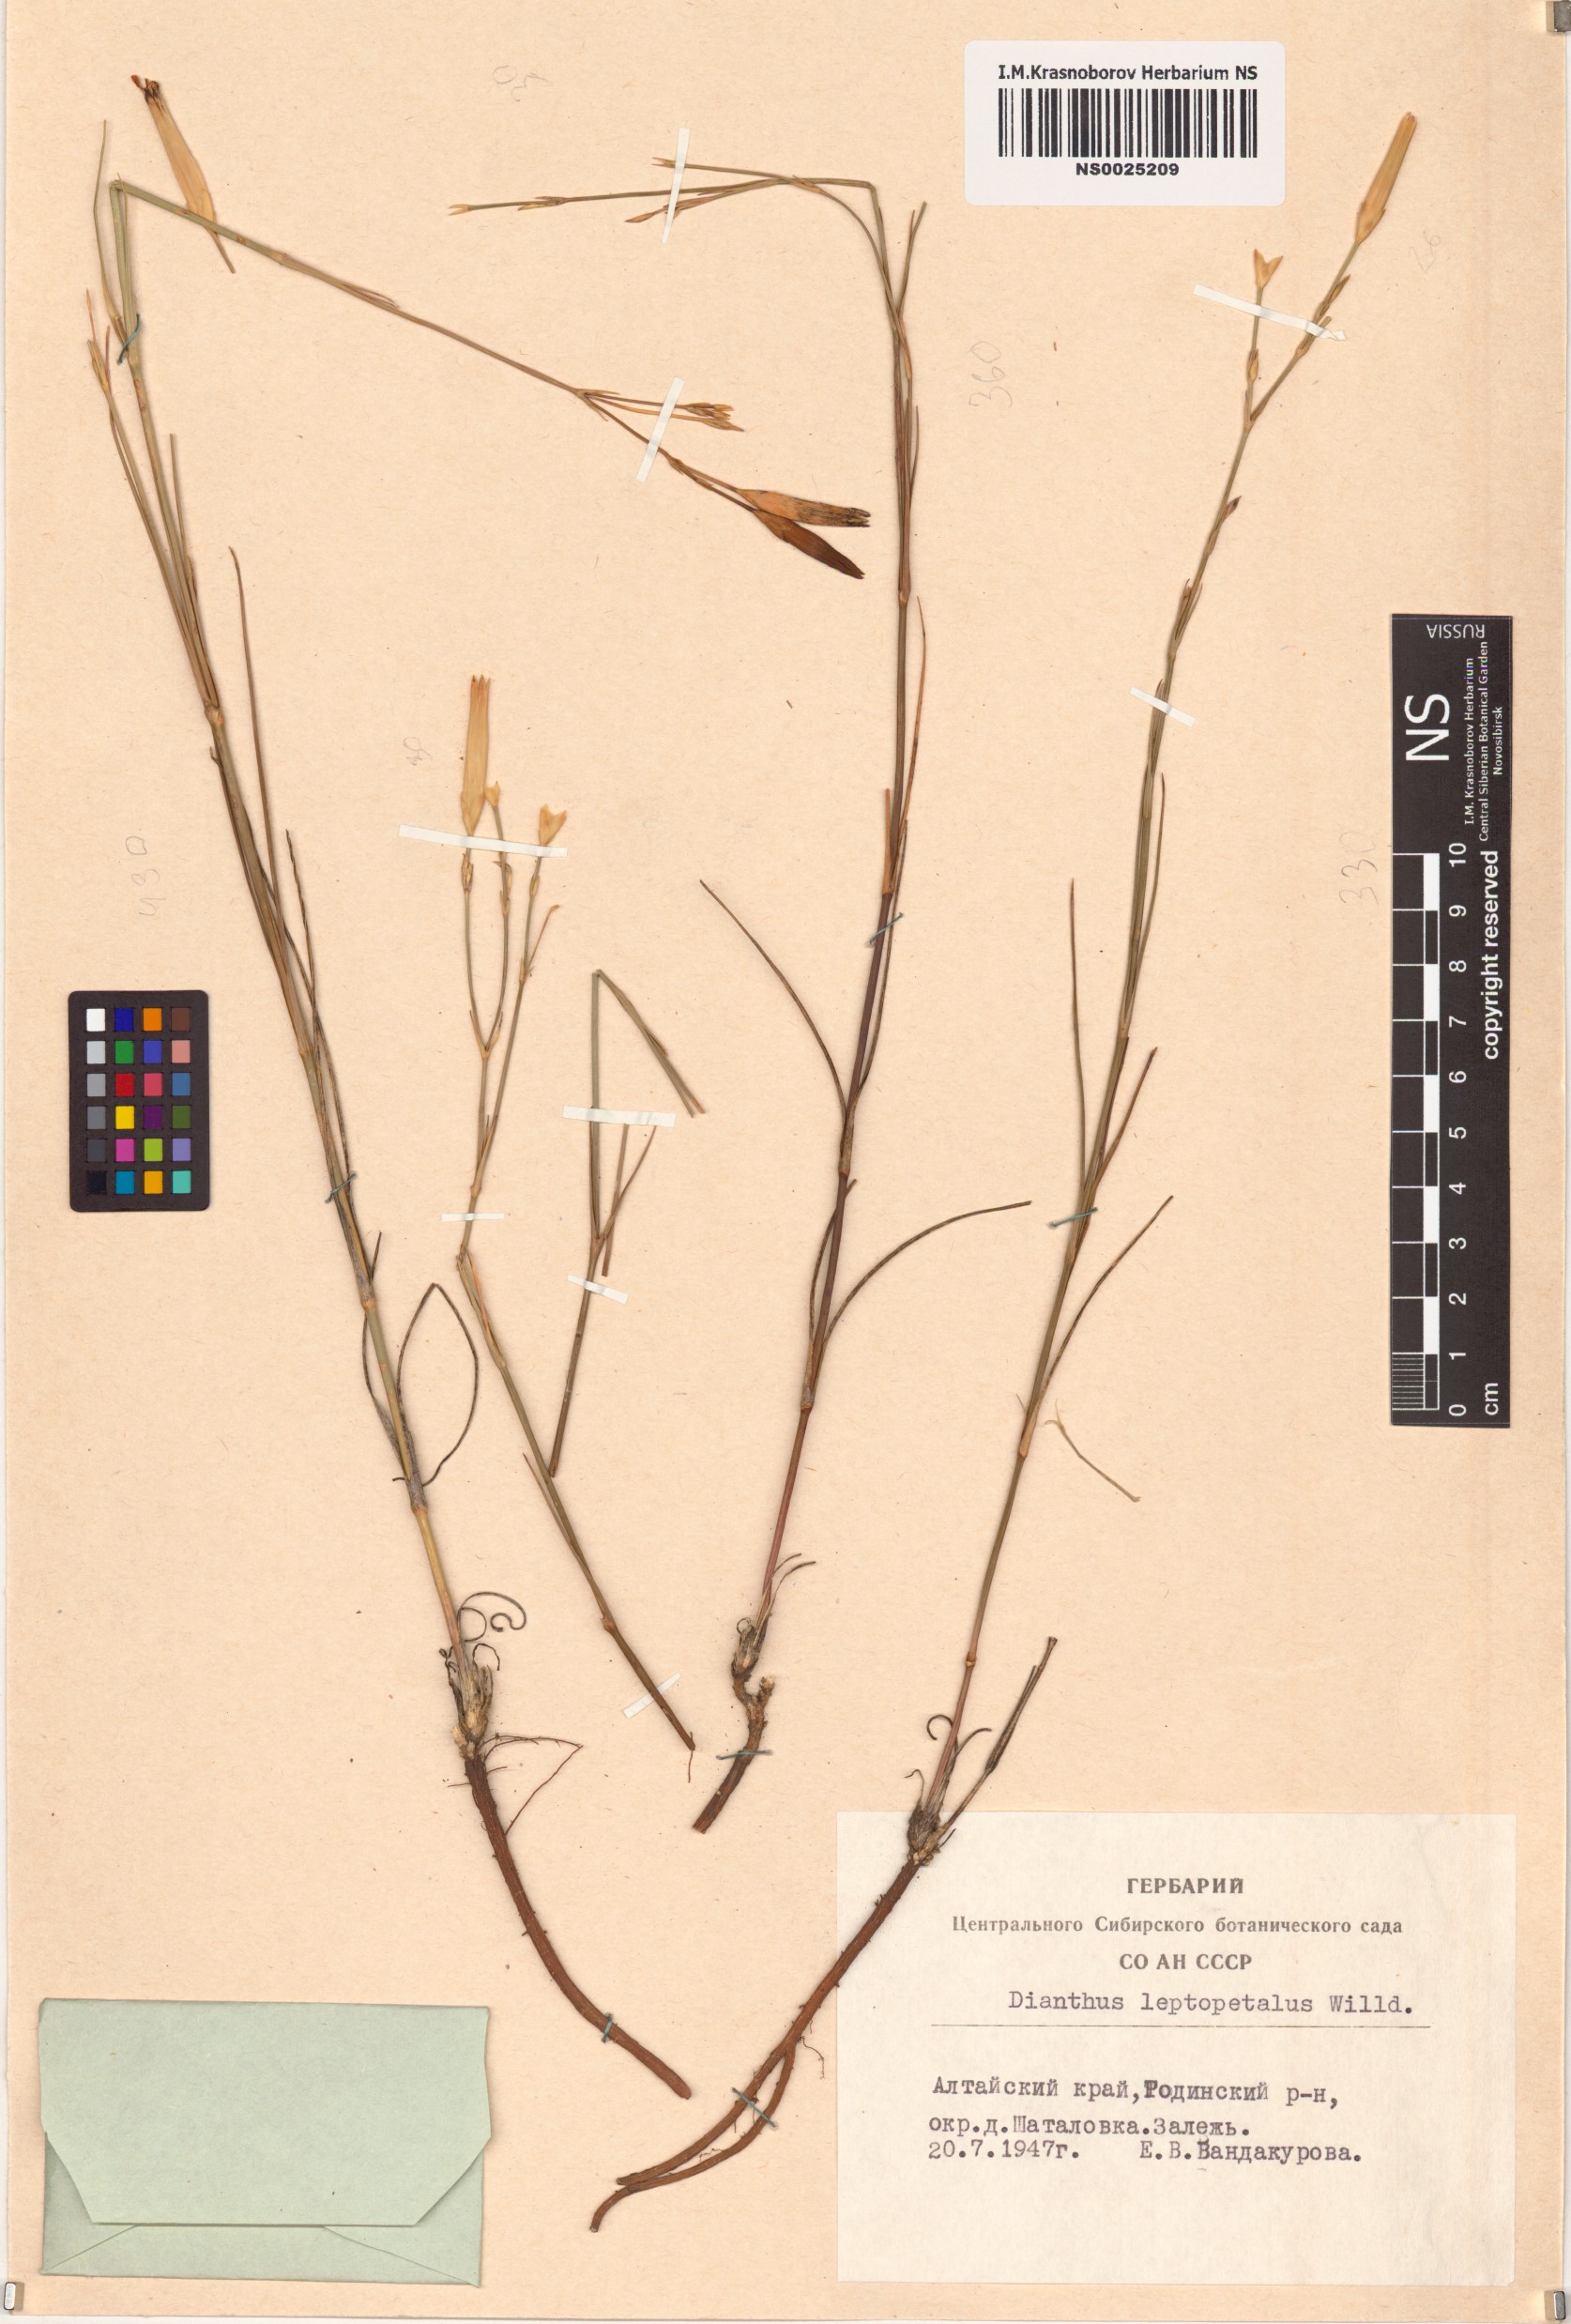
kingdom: Plantae
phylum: Tracheophyta
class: Magnoliopsida
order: Caryophyllales
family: Caryophyllaceae
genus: Dianthus
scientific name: Dianthus leptopetalus
